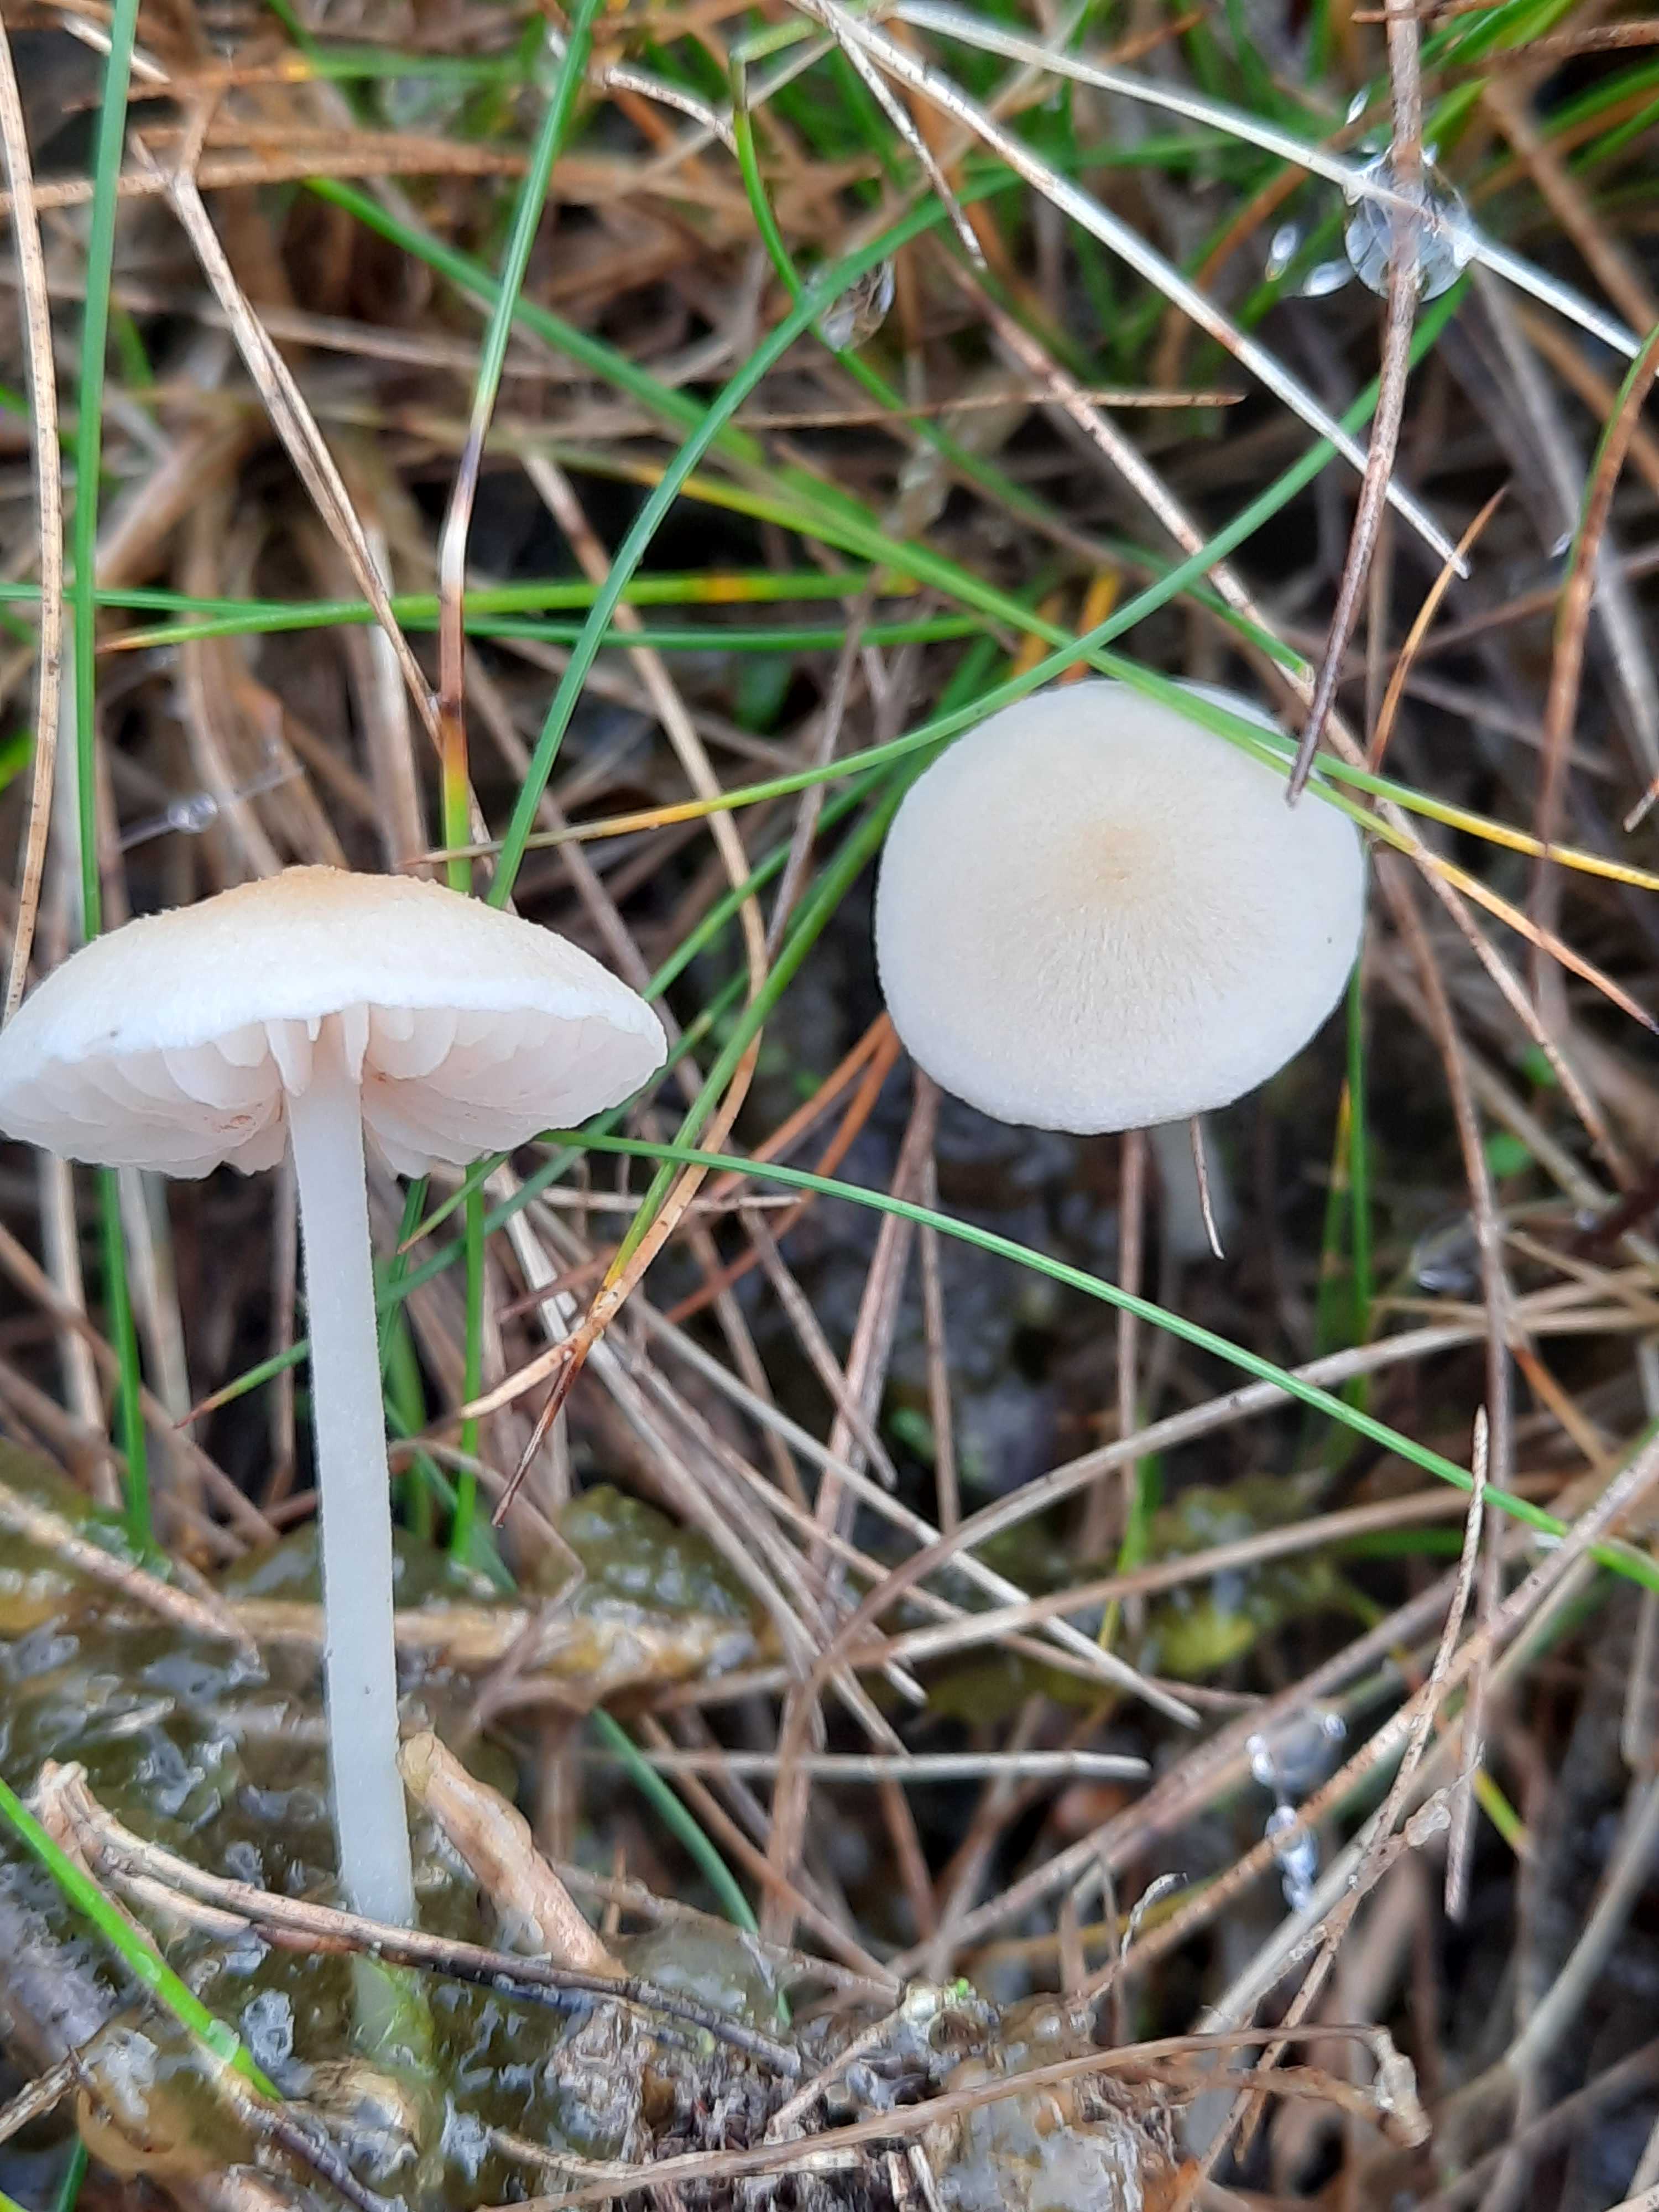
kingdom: Fungi
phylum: Basidiomycota
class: Agaricomycetes
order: Agaricales
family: Entolomataceae
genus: Entoloma
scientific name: Entoloma sericellum
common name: silkehvid rødblad
